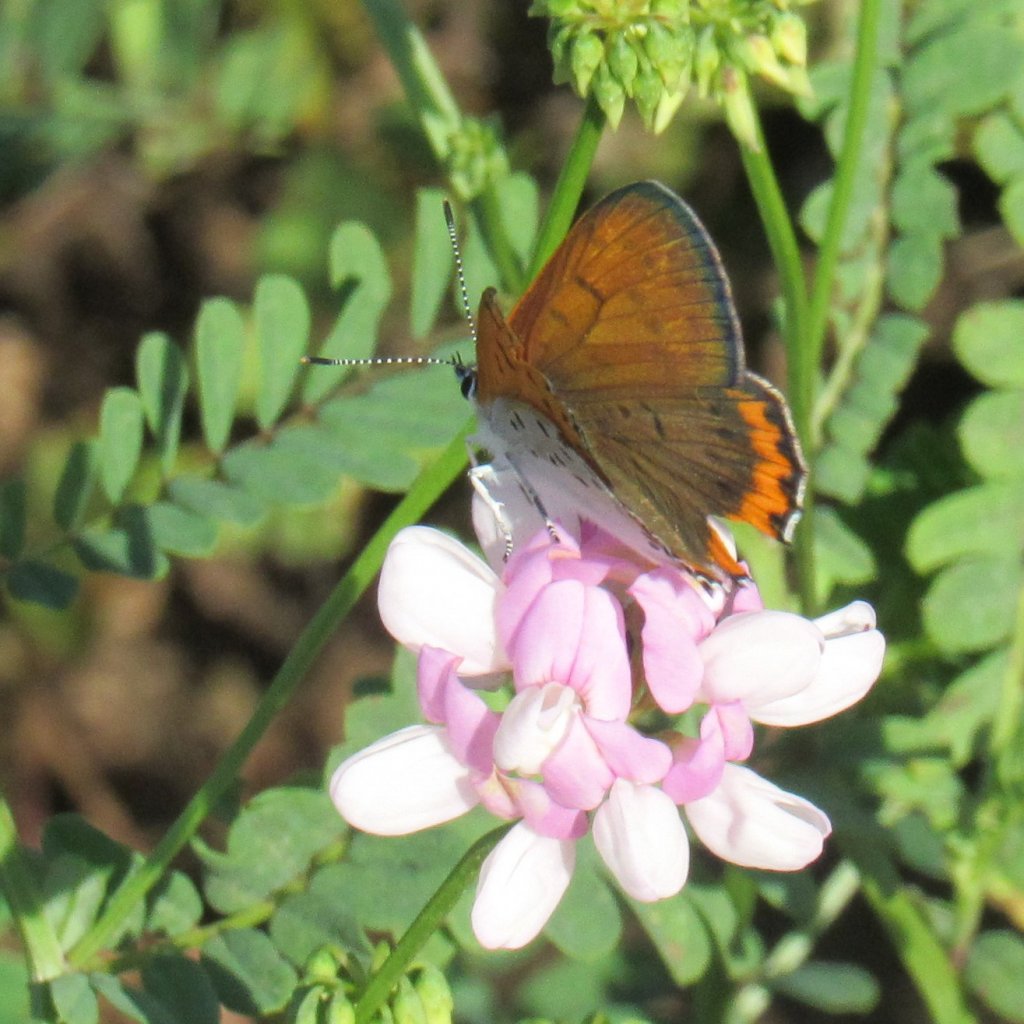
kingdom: Animalia
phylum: Arthropoda
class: Insecta
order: Lepidoptera
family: Sesiidae
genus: Sesia
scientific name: Sesia Lycaena hyllus
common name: Bronze Copper
